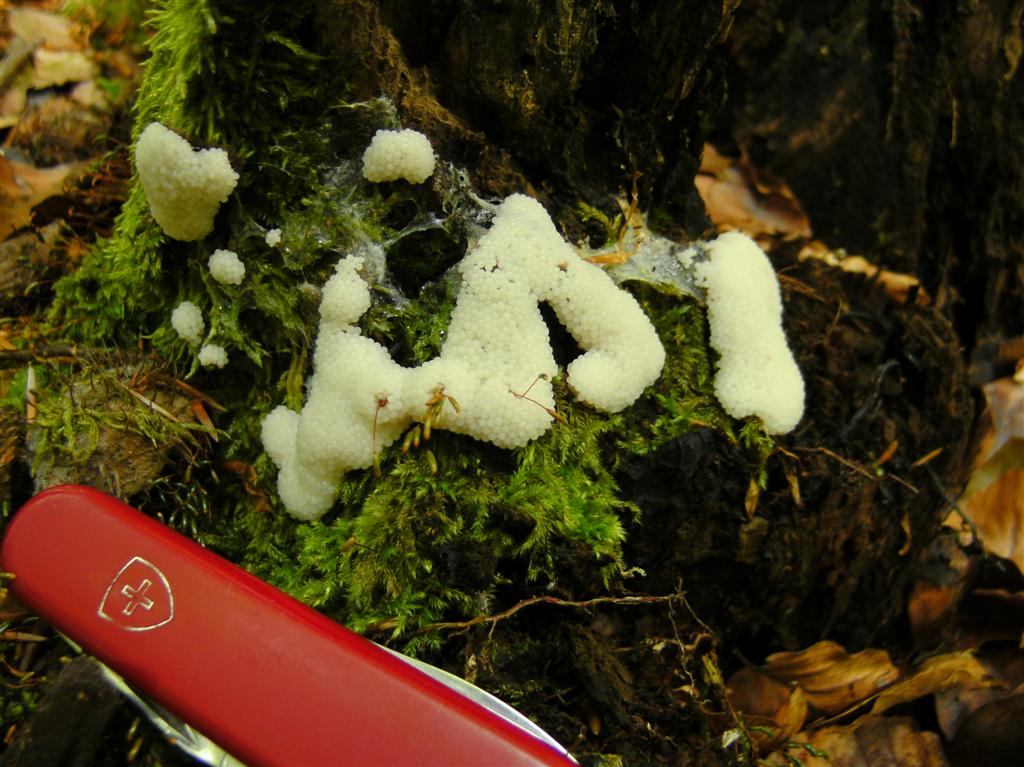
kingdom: Protozoa
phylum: Mycetozoa
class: Protosteliomycetes
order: Ceratiomyxales
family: Ceratiomyxaceae
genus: Ceratiomyxa
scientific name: Ceratiomyxa fruticulosa
